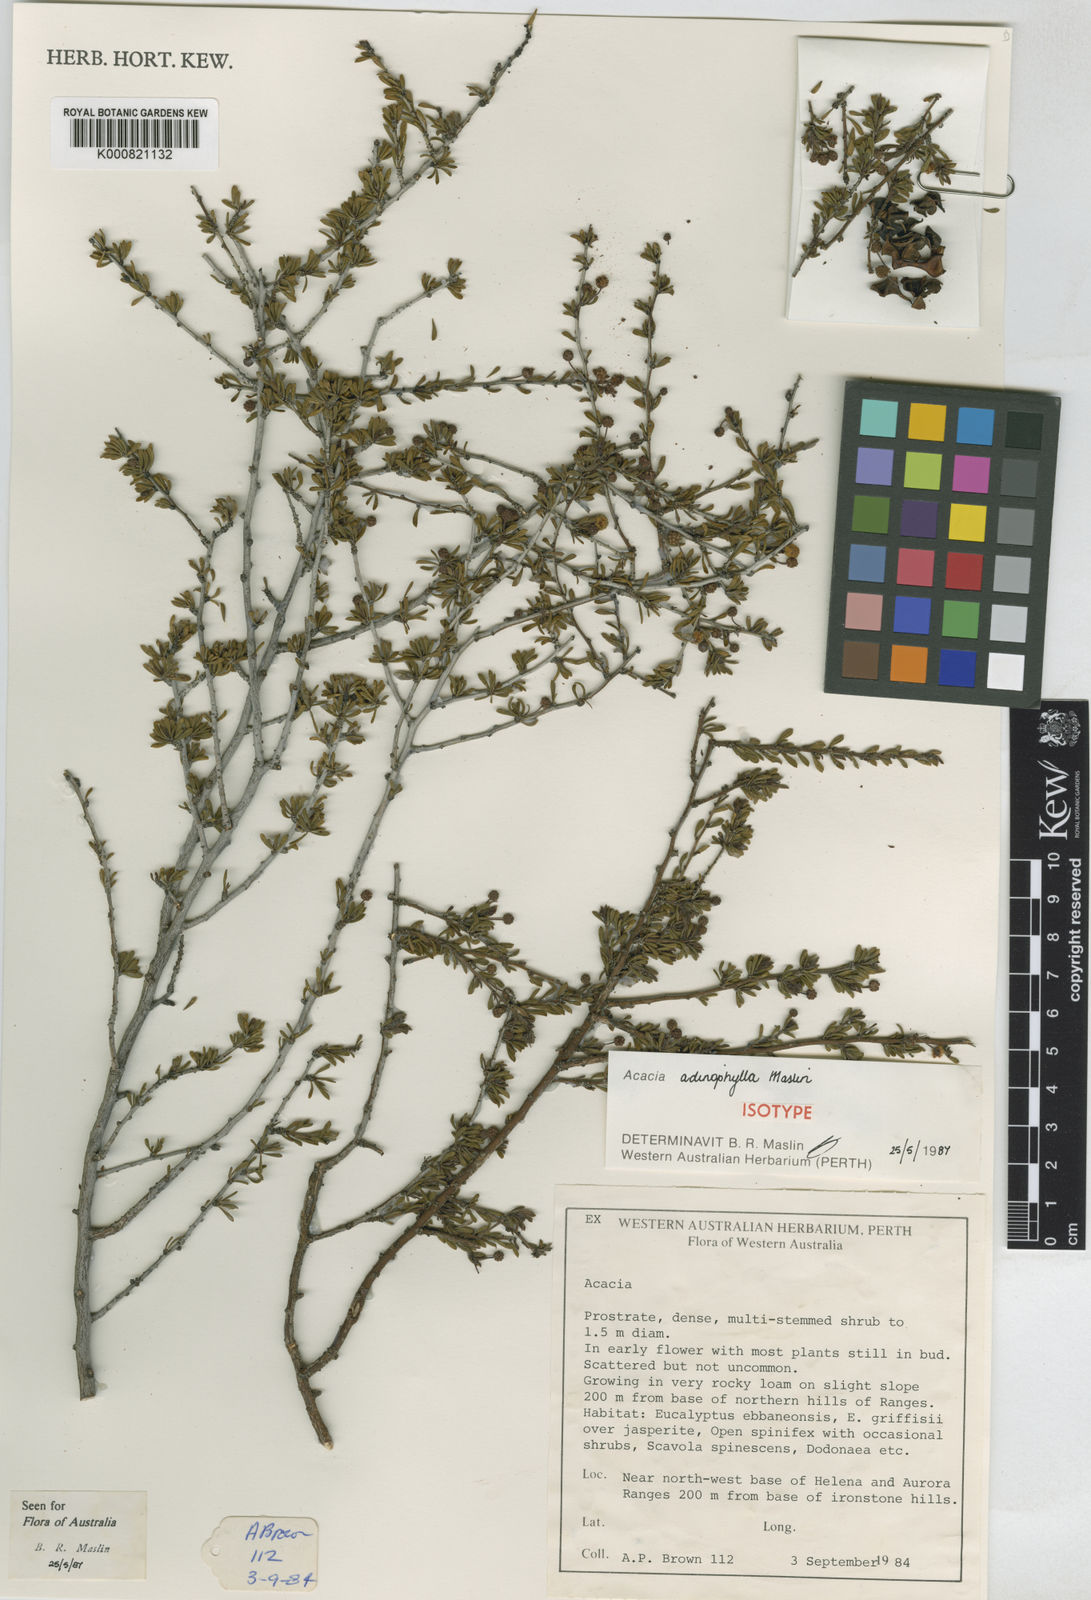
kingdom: Plantae
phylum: Tracheophyta
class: Magnoliopsida
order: Fabales
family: Fabaceae
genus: Acacia
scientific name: Acacia adinophylla
